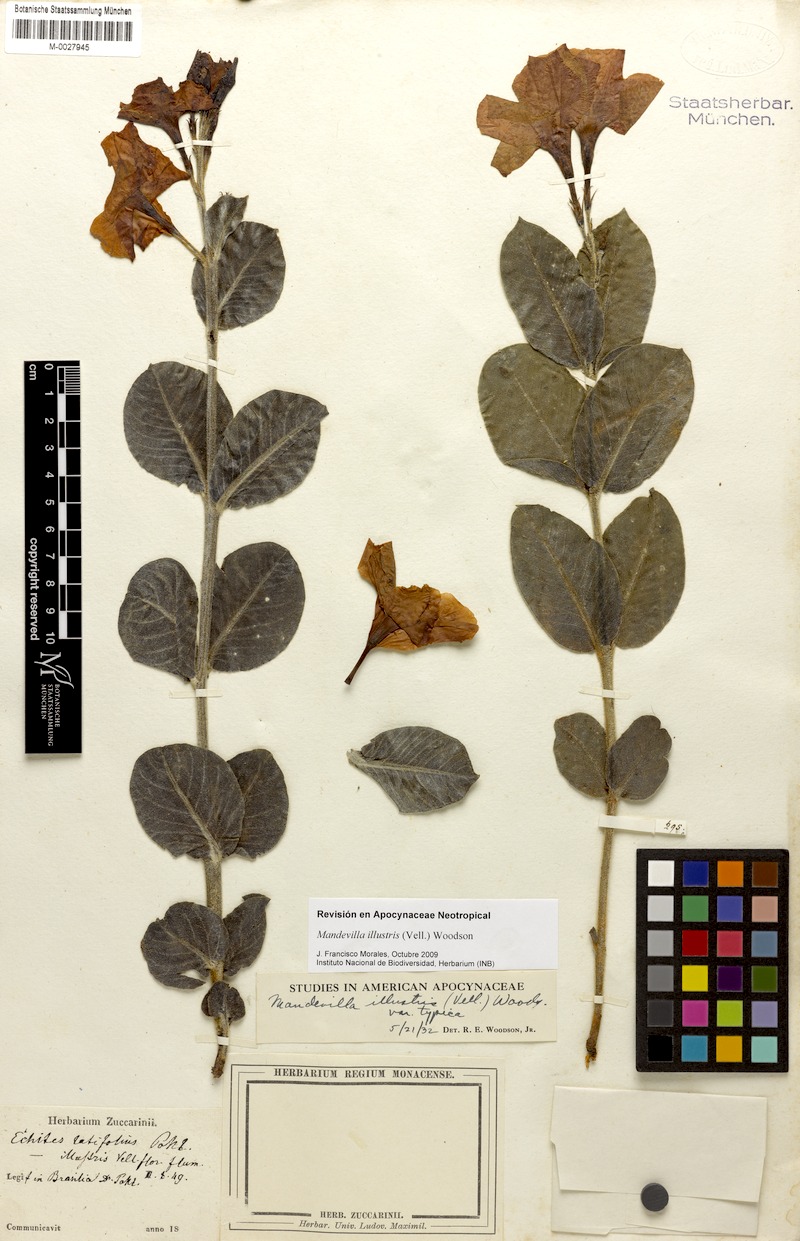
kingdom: Plantae
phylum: Tracheophyta
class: Magnoliopsida
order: Gentianales
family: Apocynaceae
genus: Mandevilla
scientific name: Mandevilla illustris
